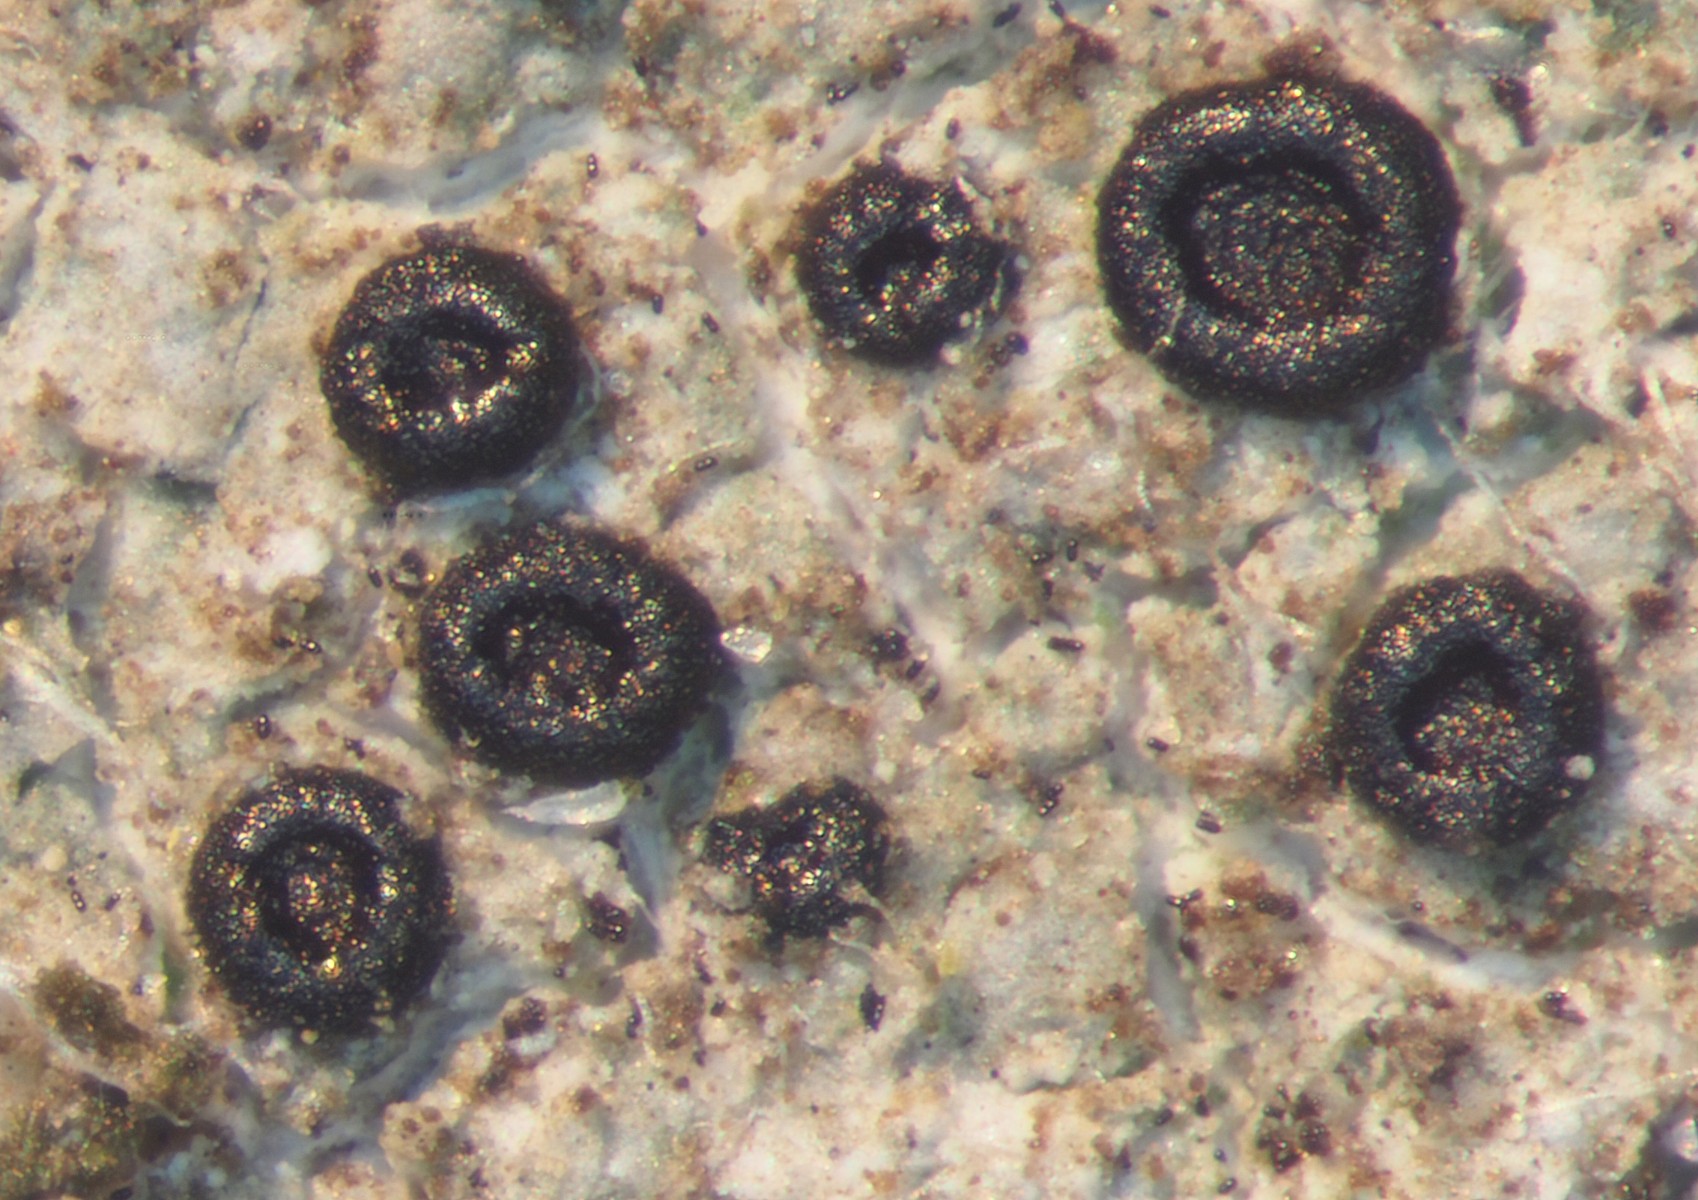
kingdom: Fungi
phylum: Ascomycota
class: Lecanoromycetes
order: Lecanorales
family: Lecanoraceae
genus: Lecidella
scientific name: Lecidella stigmatea
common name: kalkstens-skivelav
